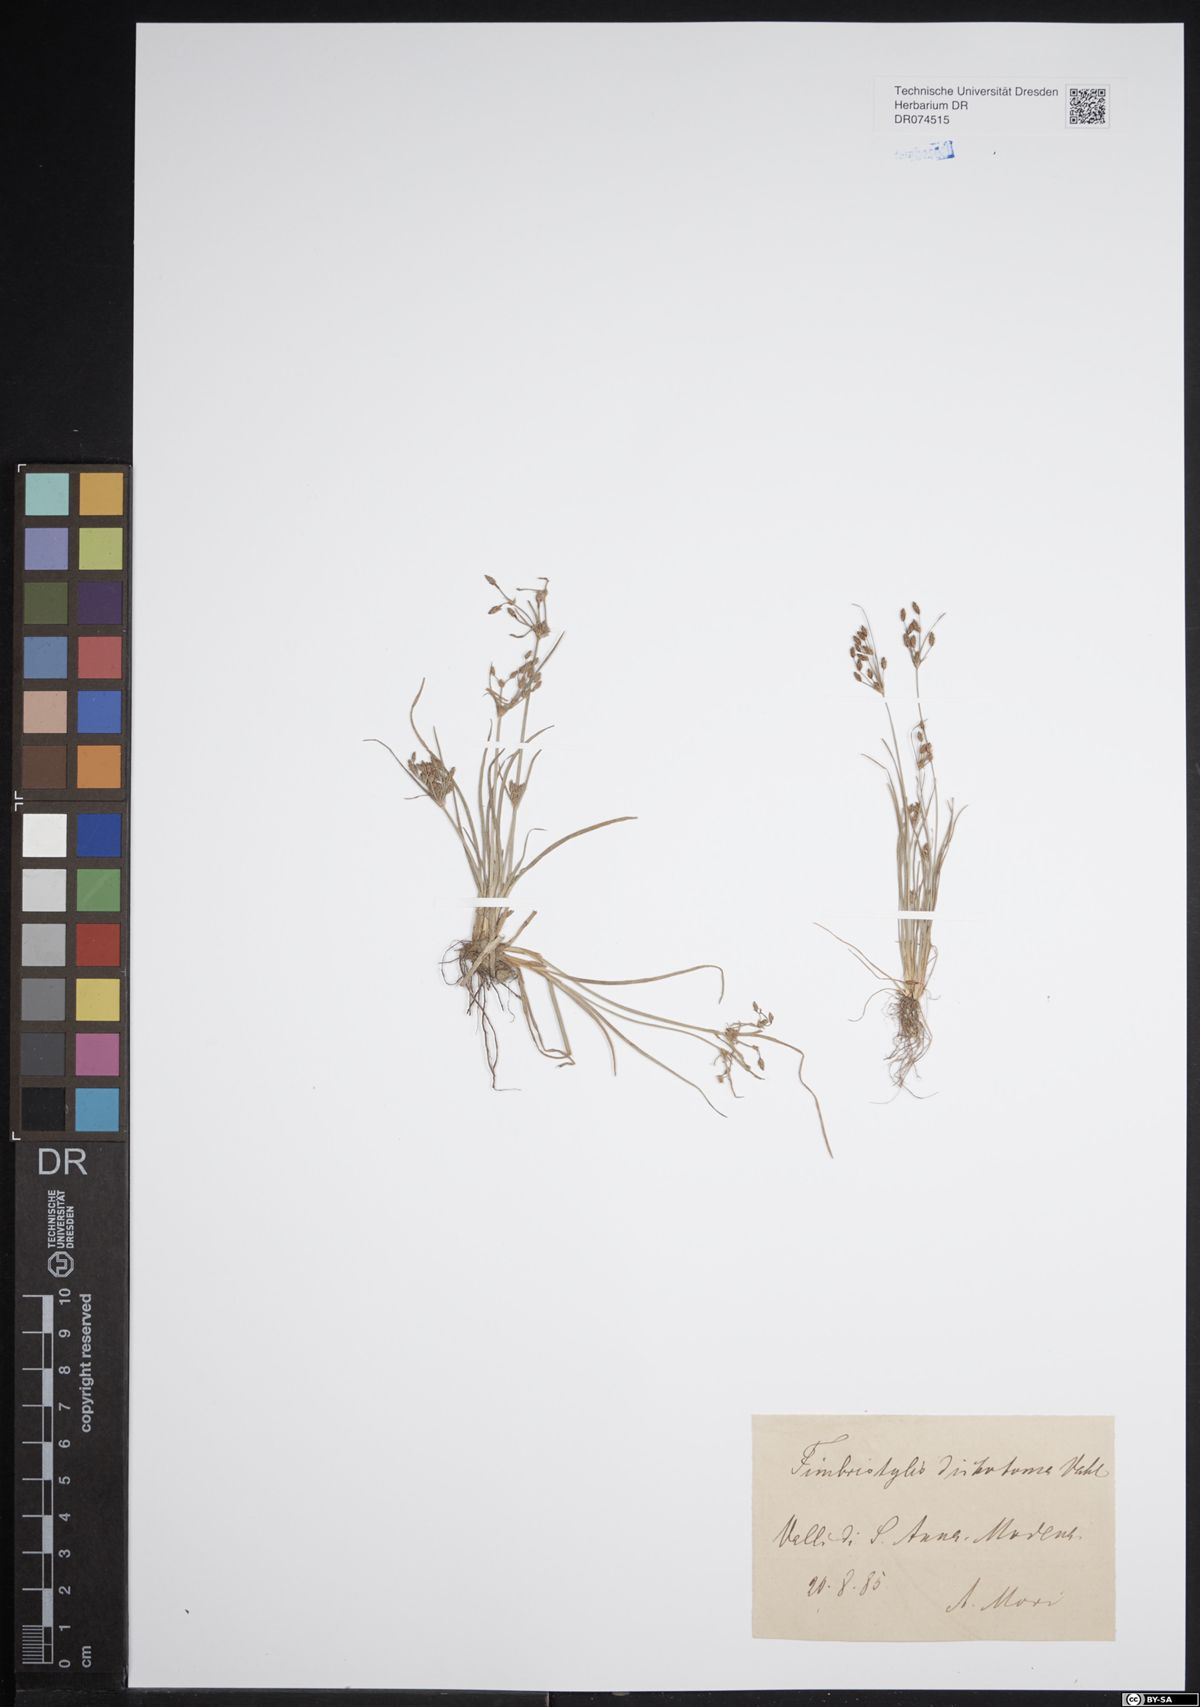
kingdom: Plantae
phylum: Tracheophyta
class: Liliopsida
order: Poales
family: Cyperaceae
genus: Fimbristylis
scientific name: Fimbristylis dichotoma
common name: Forked fimbry
